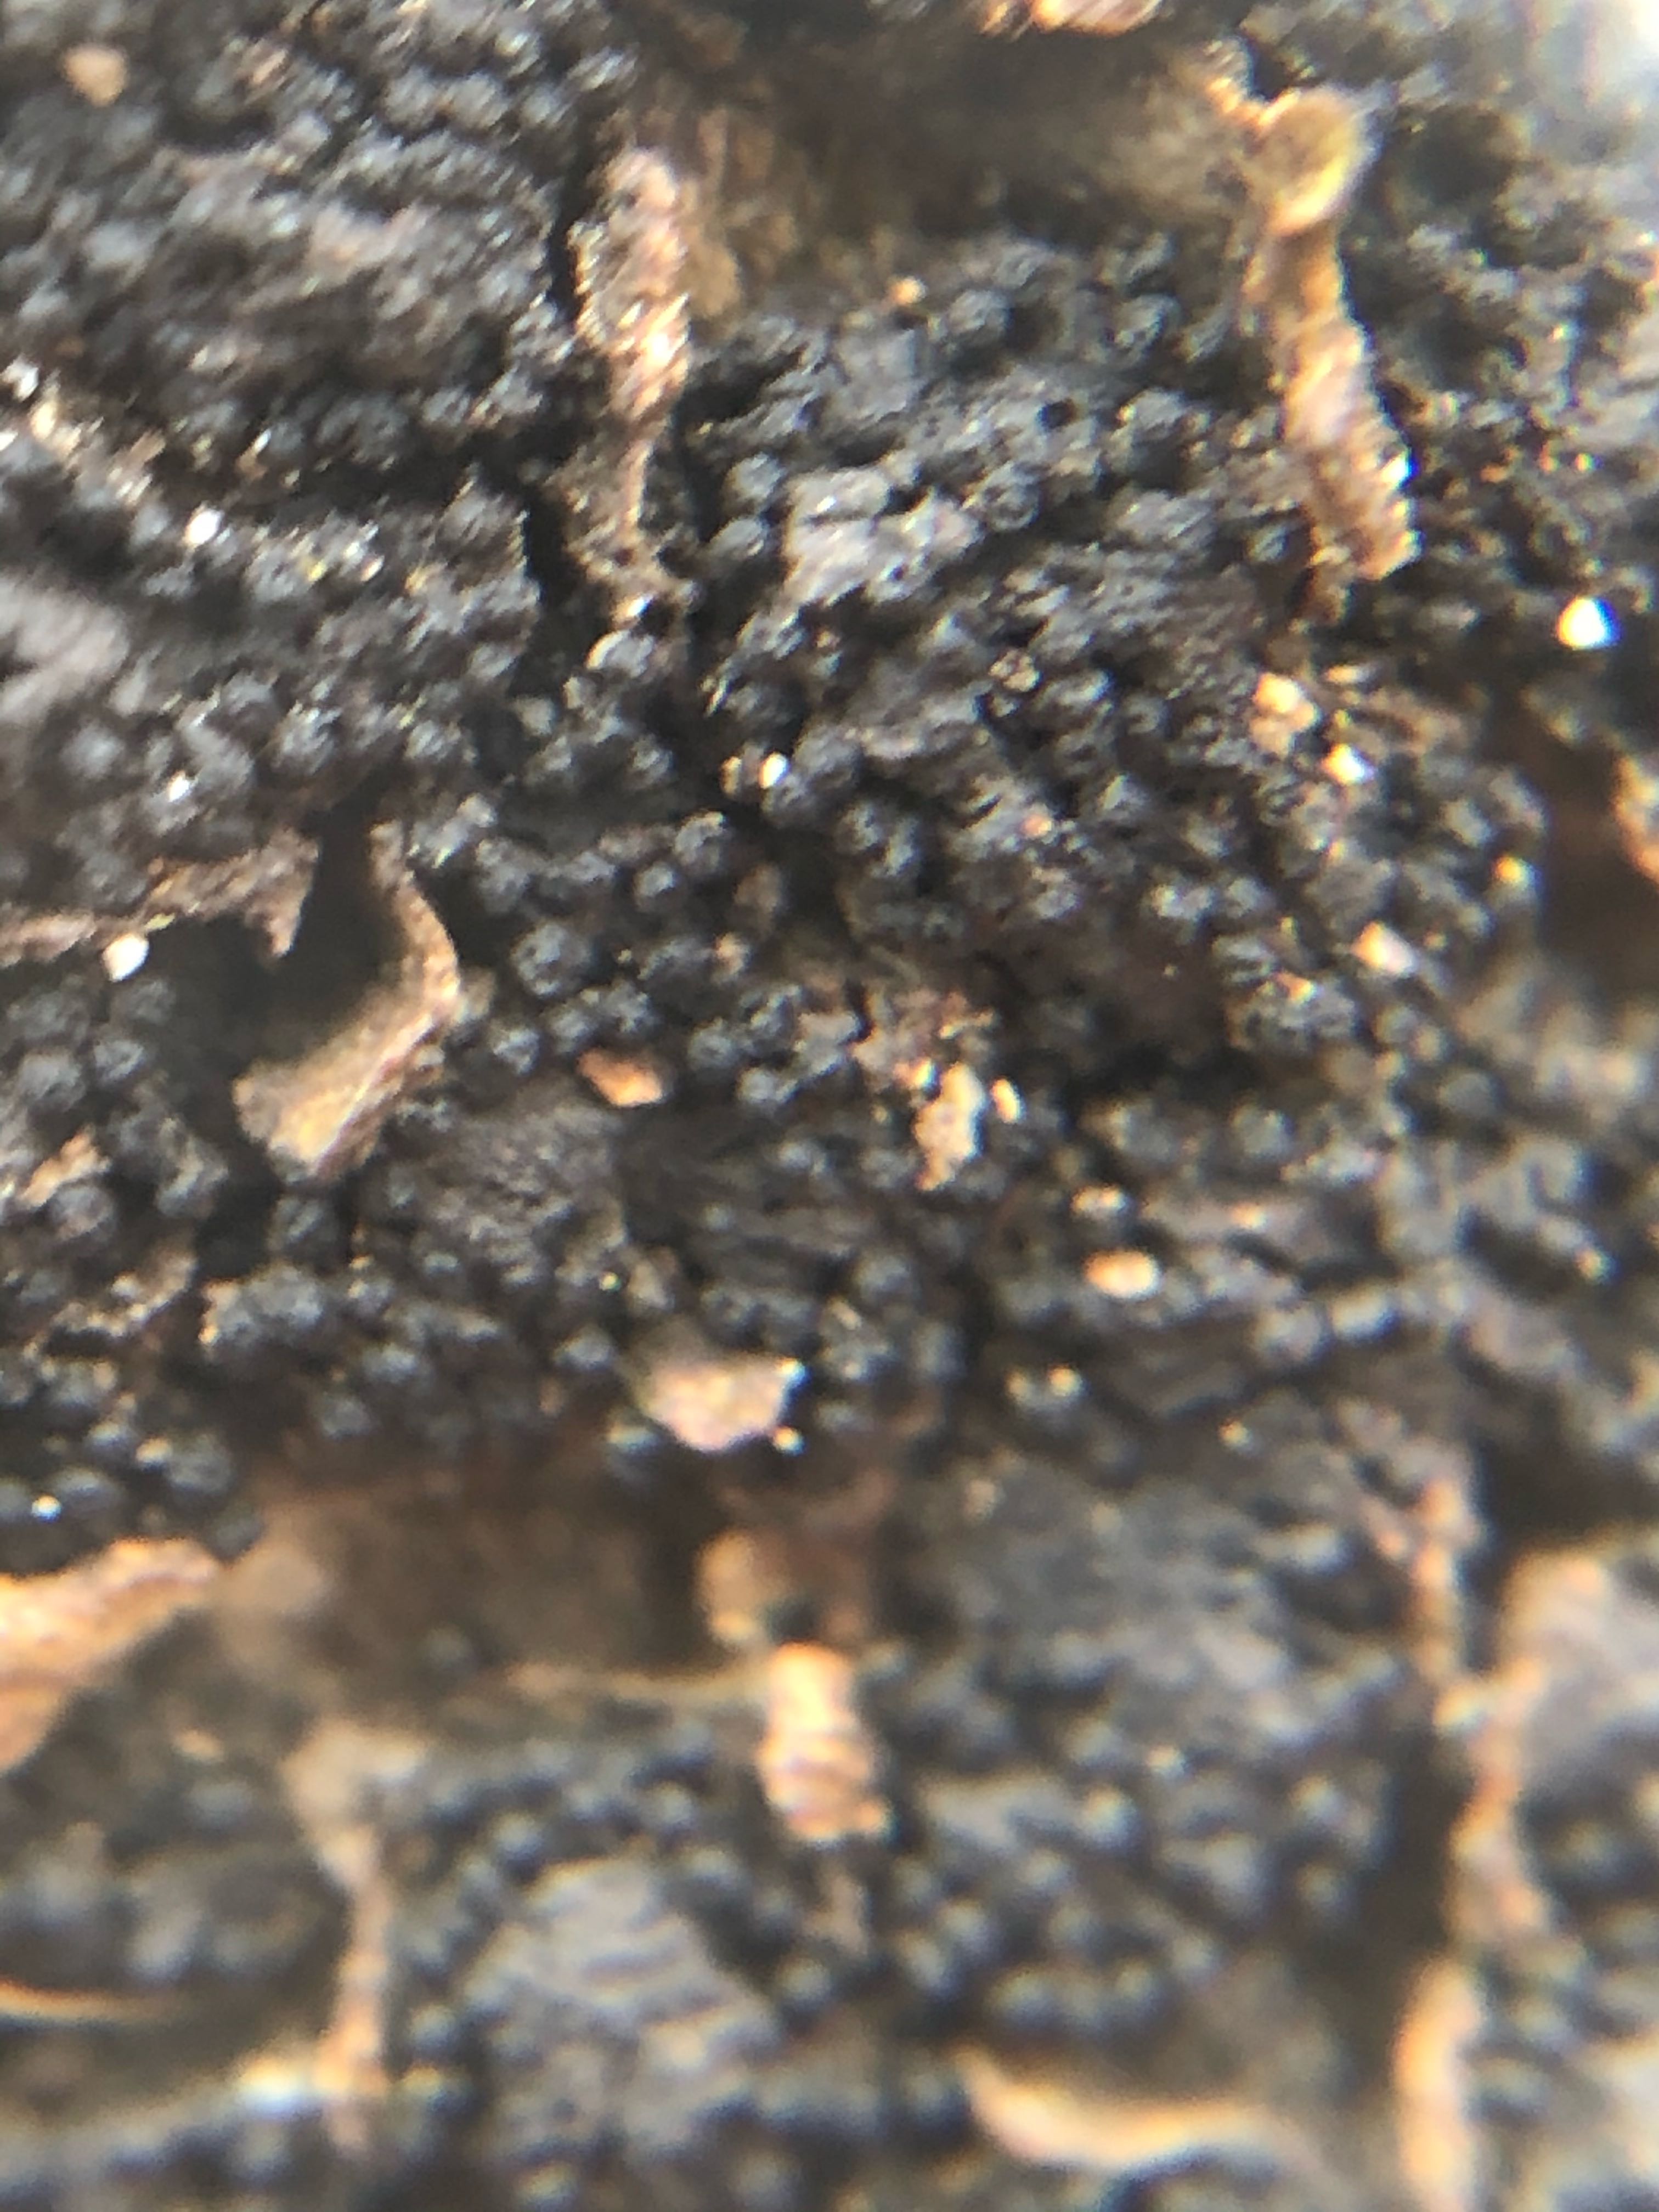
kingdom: Fungi
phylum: Ascomycota
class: Sordariomycetes
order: Xylariales
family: Melogrammataceae
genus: Melogramma
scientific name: Melogramma spiniferum
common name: bøgefod-kulhals
